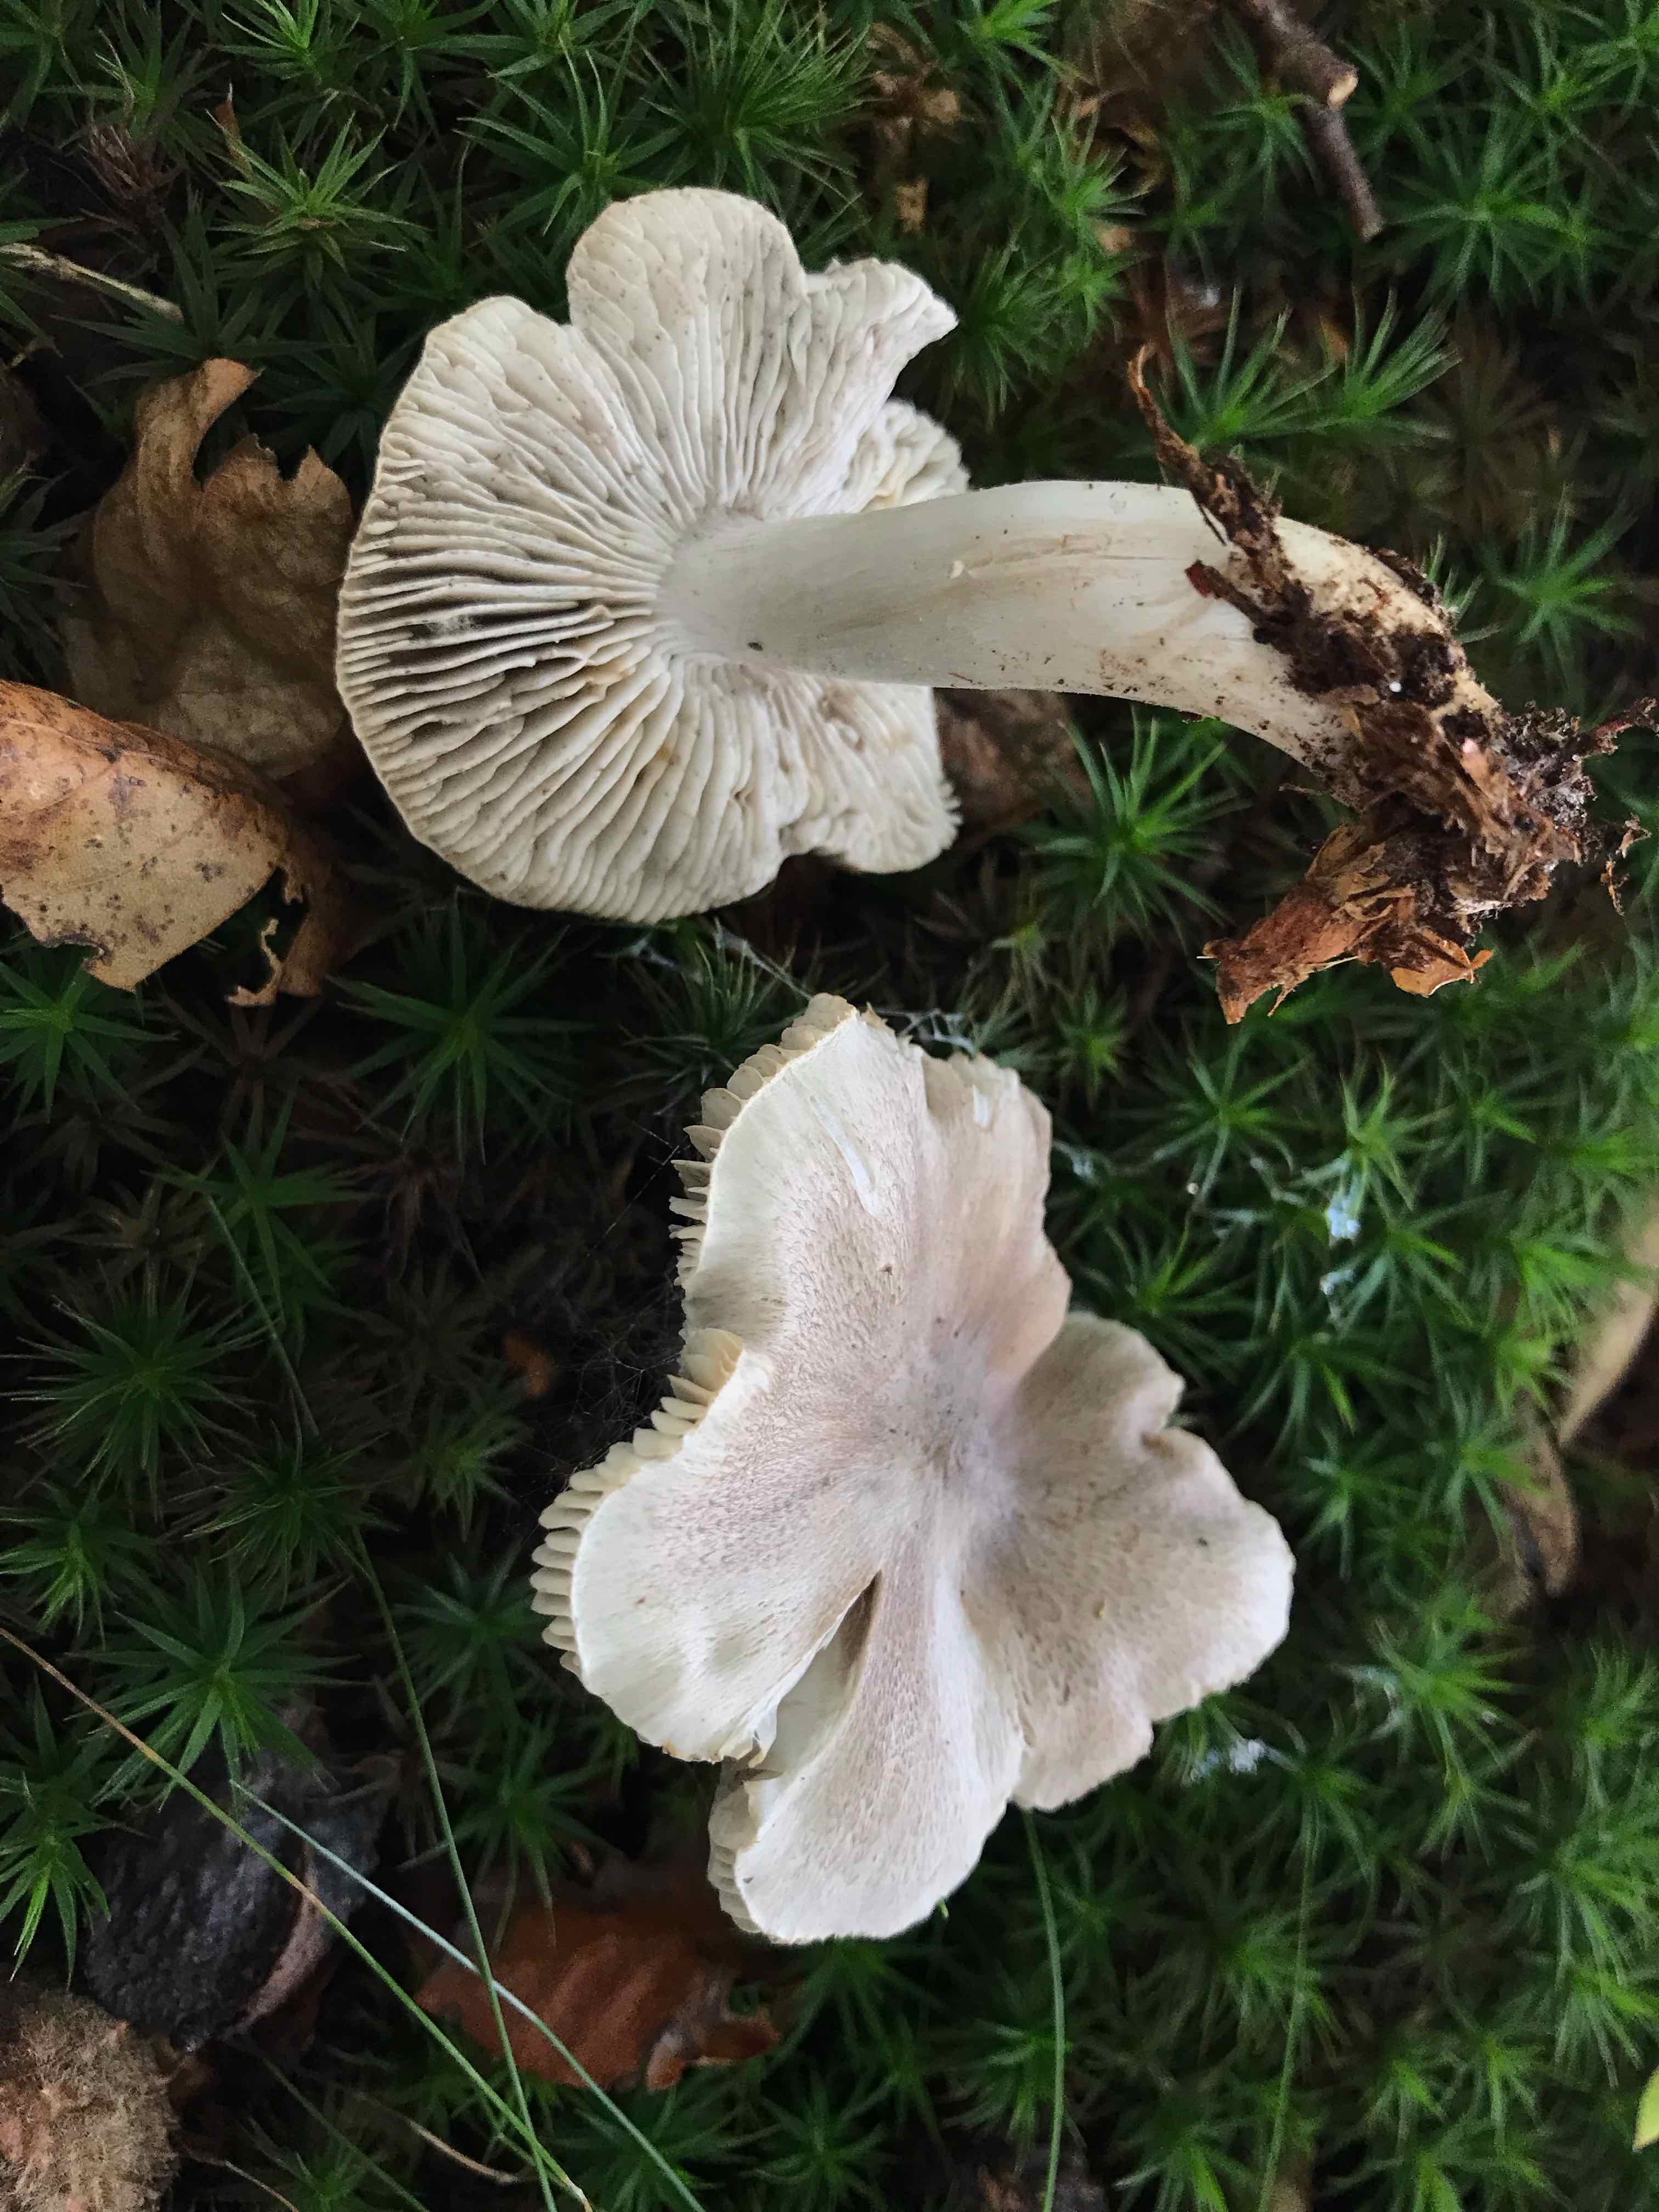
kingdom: Fungi
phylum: Basidiomycota
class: Agaricomycetes
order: Agaricales
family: Tricholomataceae
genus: Tricholoma
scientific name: Tricholoma sciodes
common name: stribet ridderhat
